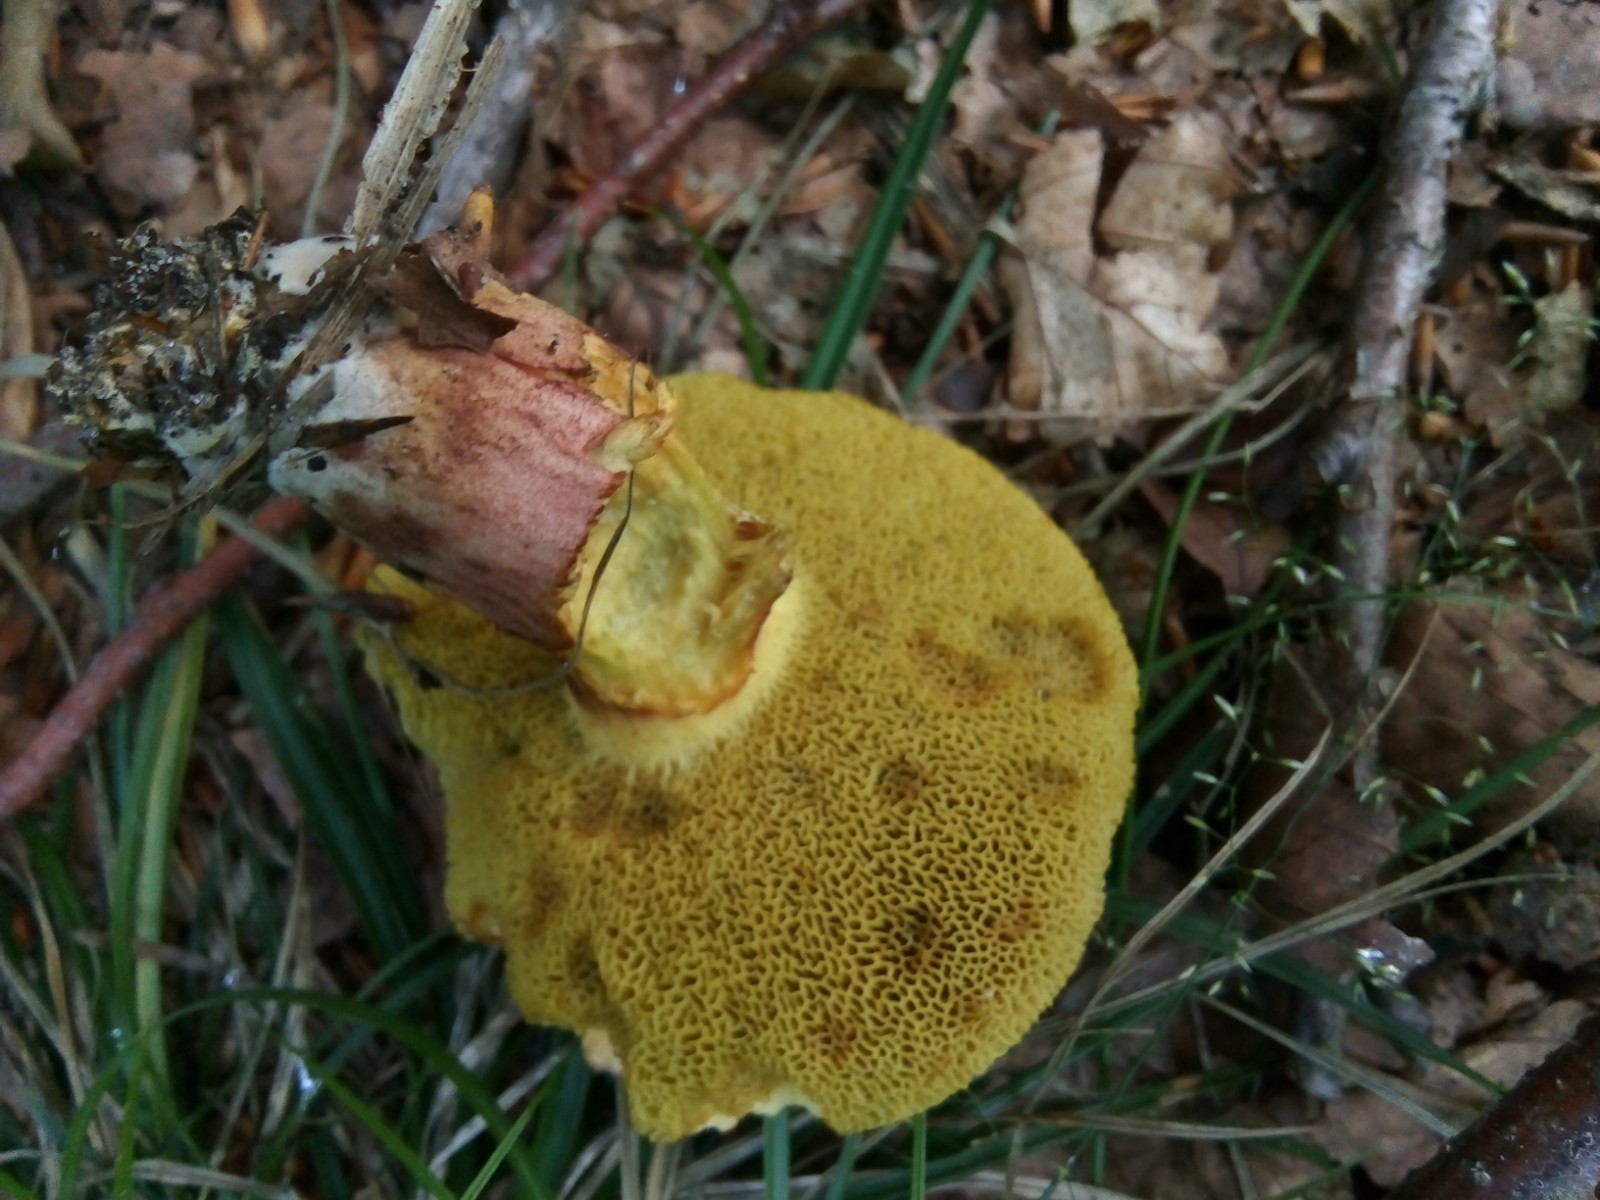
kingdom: Fungi
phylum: Basidiomycota
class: Agaricomycetes
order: Boletales
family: Boletaceae
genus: Xerocomellus
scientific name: Xerocomellus chrysenteron
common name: rødsprukken rørhat
